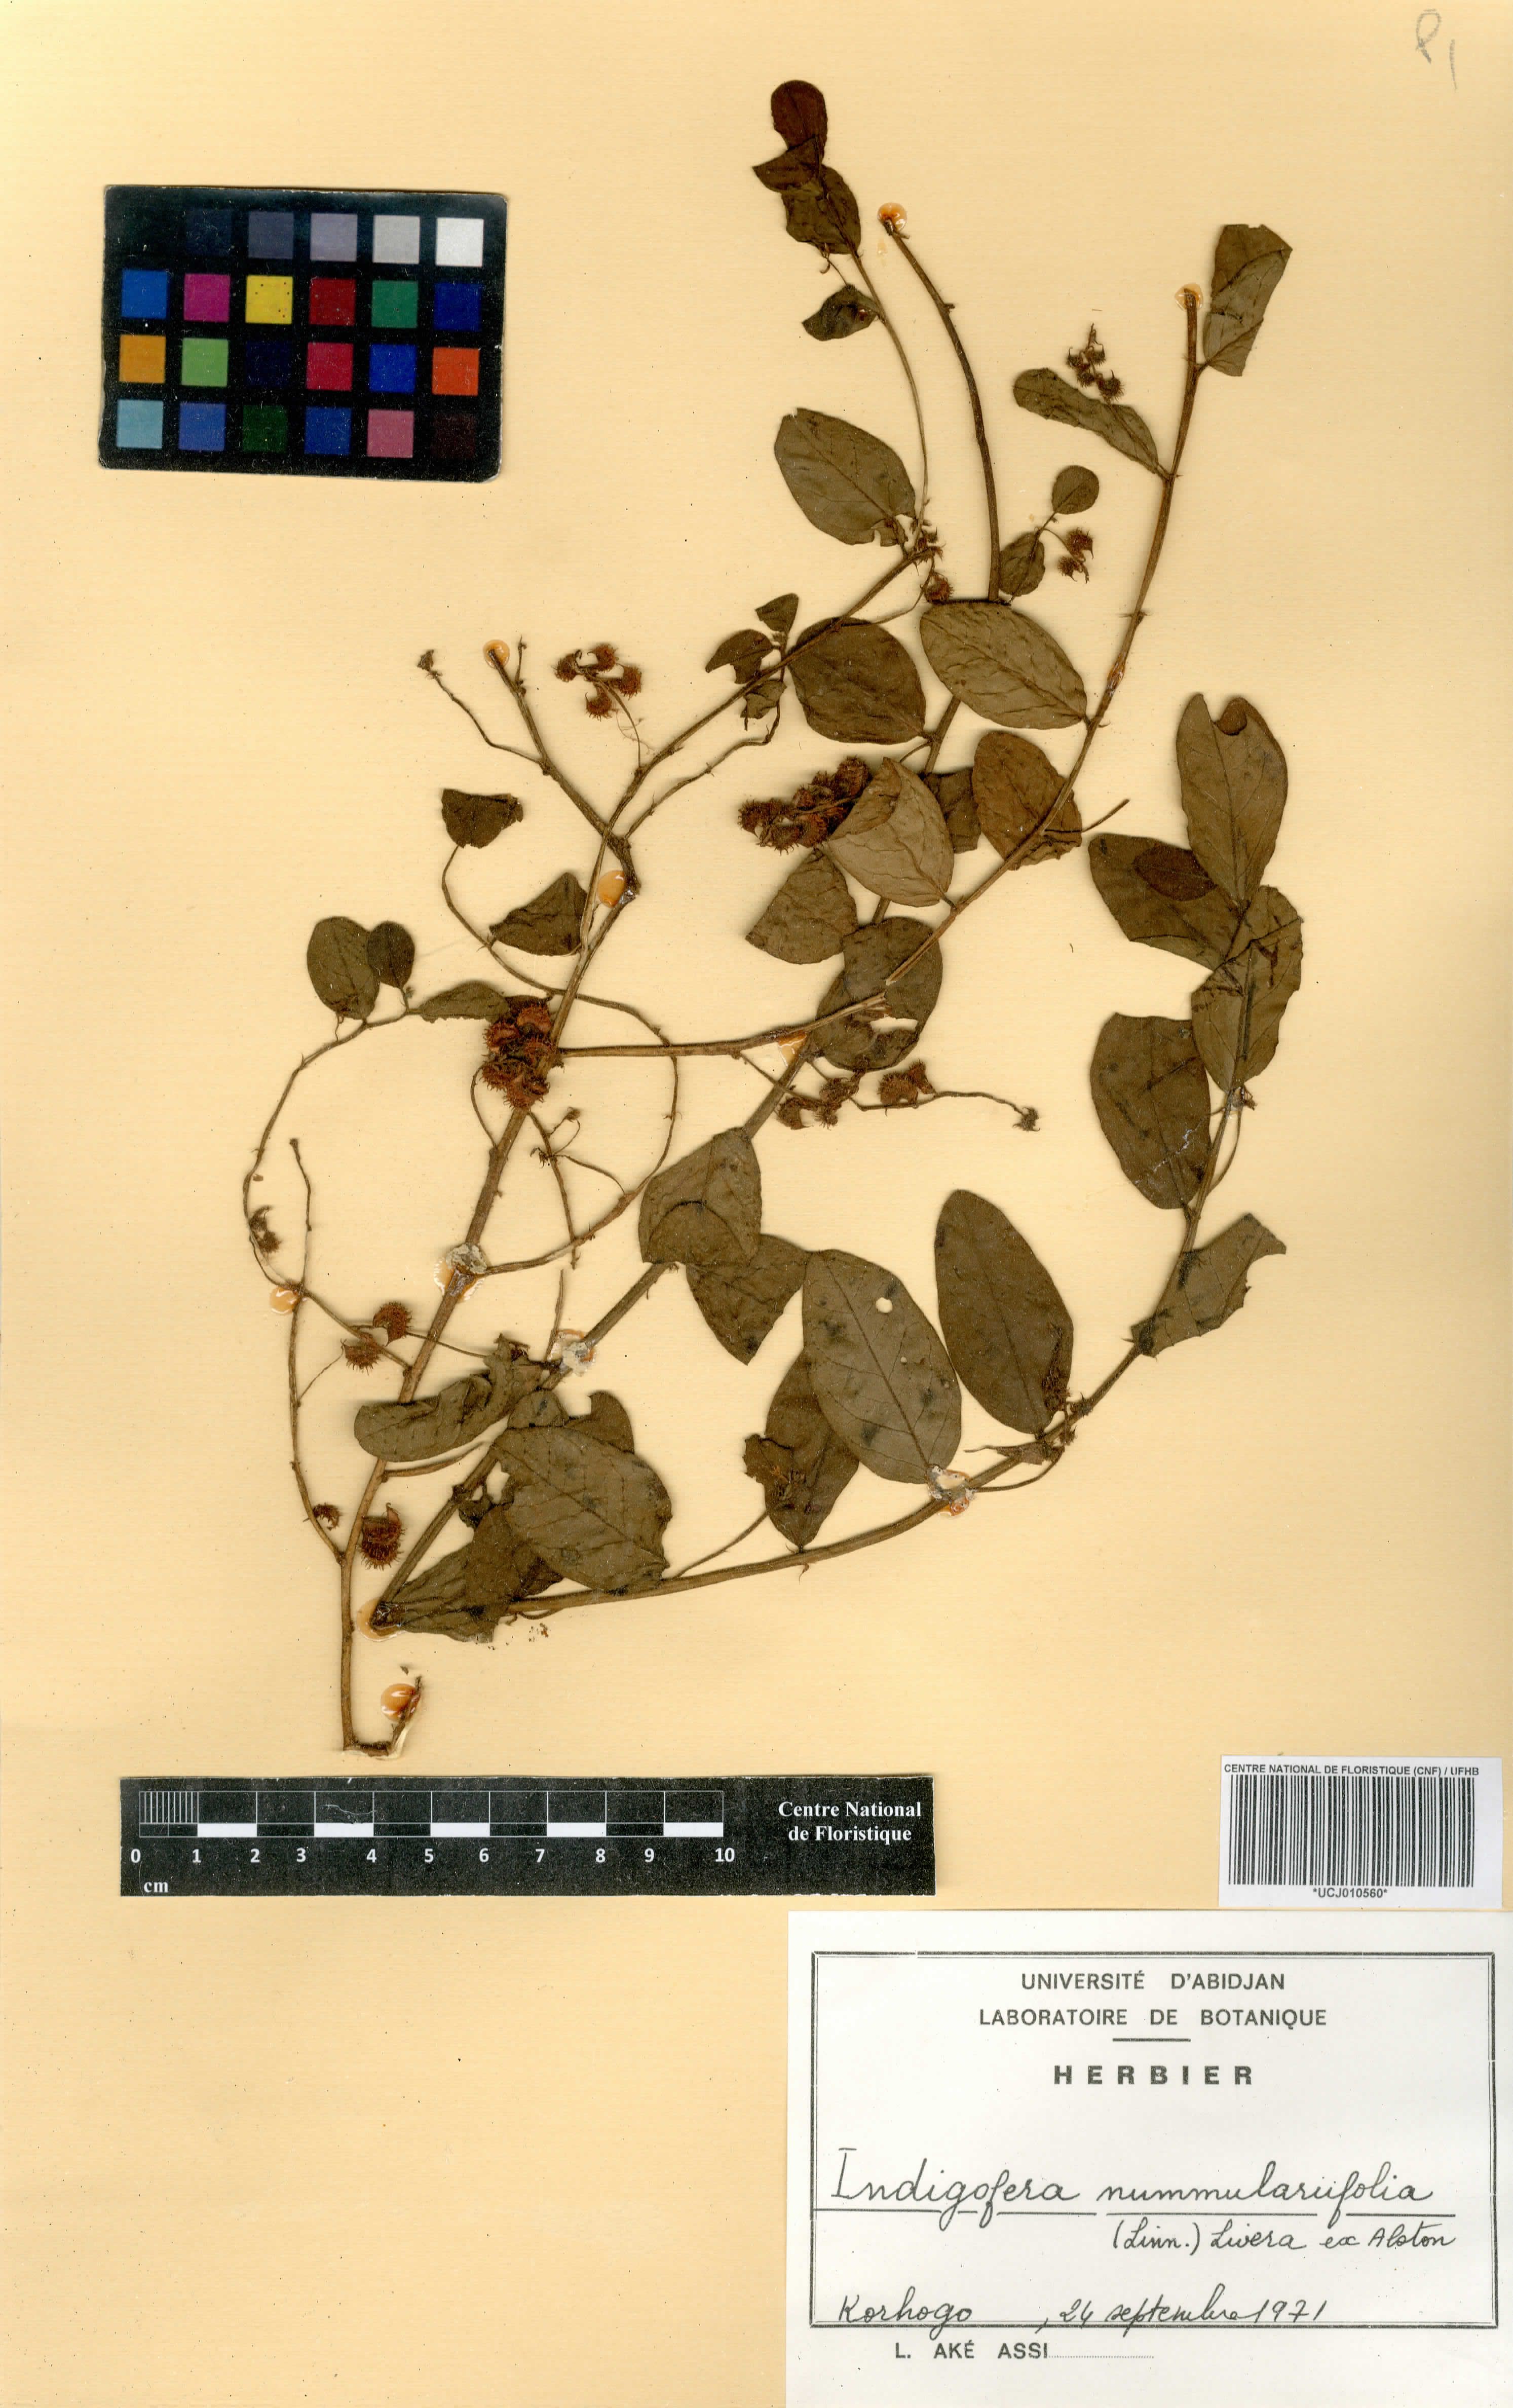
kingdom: Plantae
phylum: Tracheophyta
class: Magnoliopsida
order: Fabales
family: Fabaceae
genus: Indigofera
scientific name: Indigofera nummulariifolia
